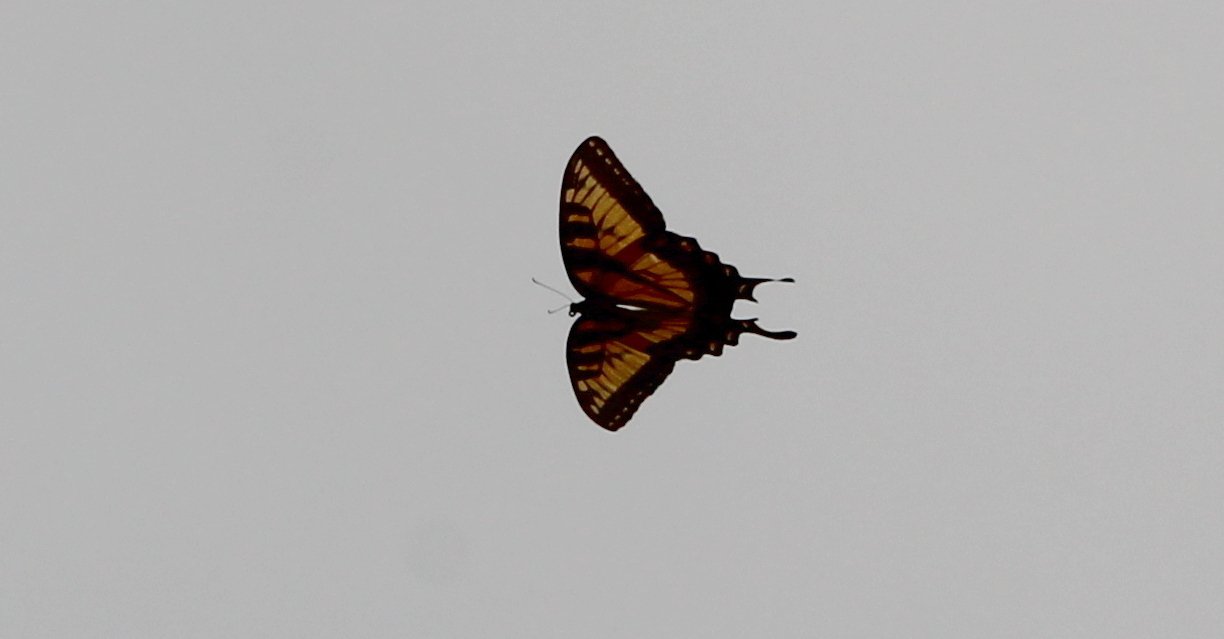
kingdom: Animalia
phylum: Arthropoda
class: Insecta
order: Lepidoptera
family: Papilionidae
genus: Pterourus
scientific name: Pterourus glaucus
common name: Eastern Tiger Swallowtail
